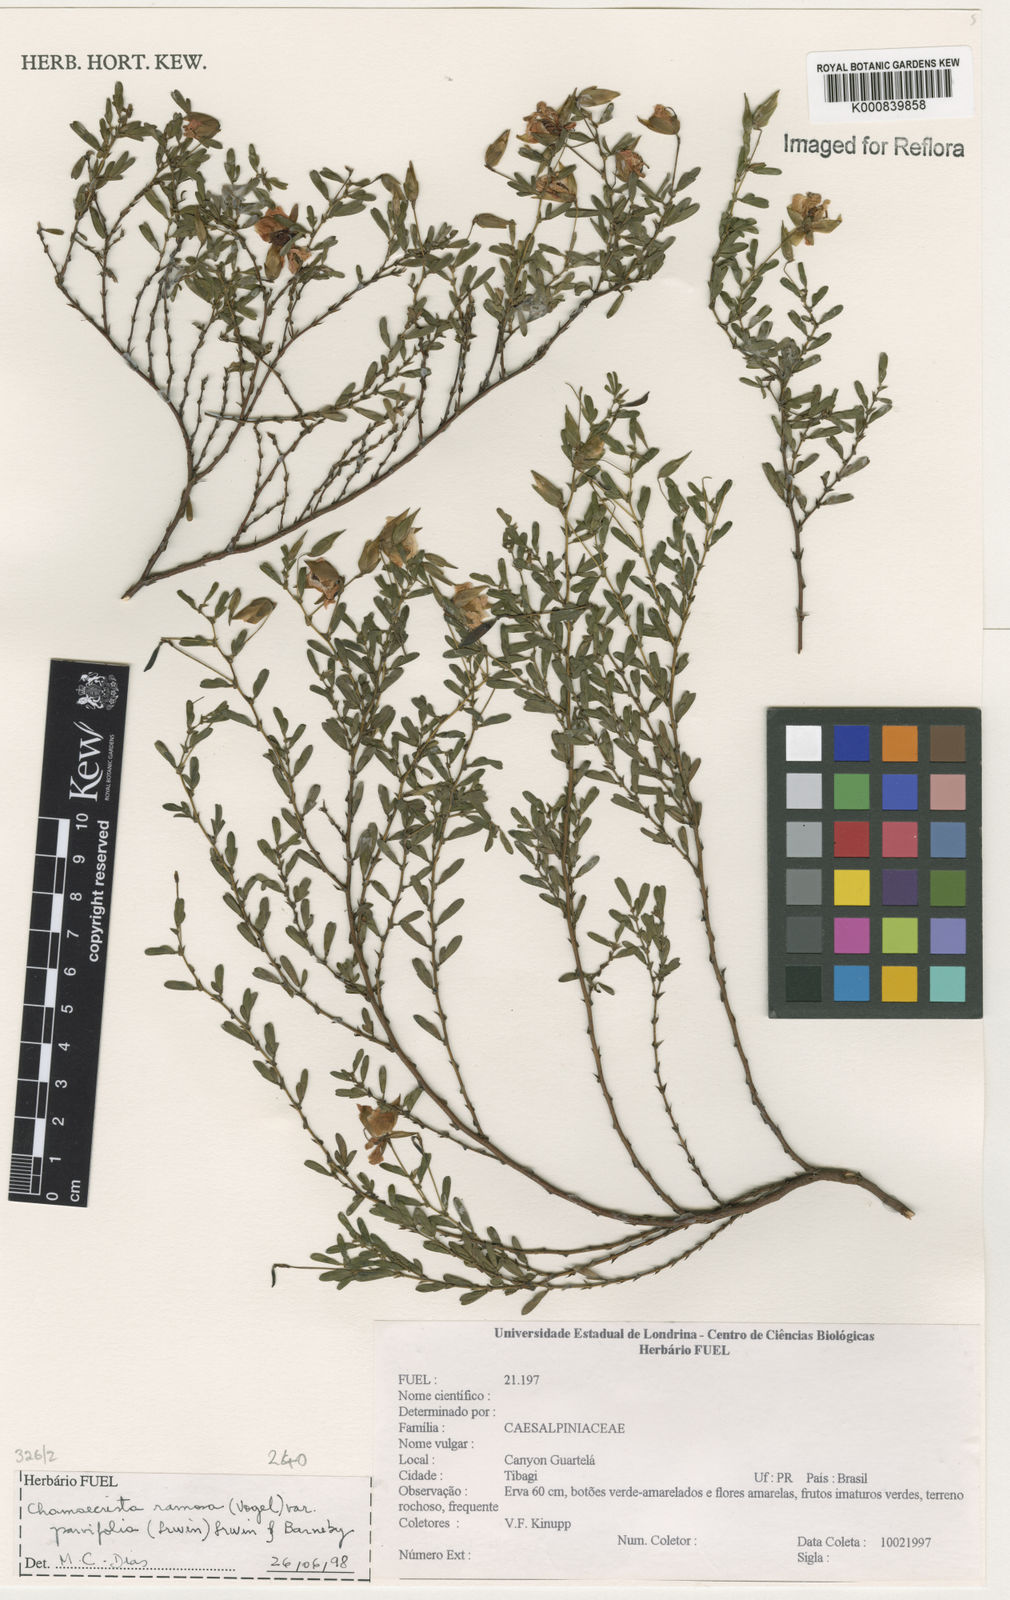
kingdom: Plantae
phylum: Tracheophyta
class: Magnoliopsida
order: Fabales
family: Fabaceae
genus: Chamaecrista
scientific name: Chamaecrista ramosa
